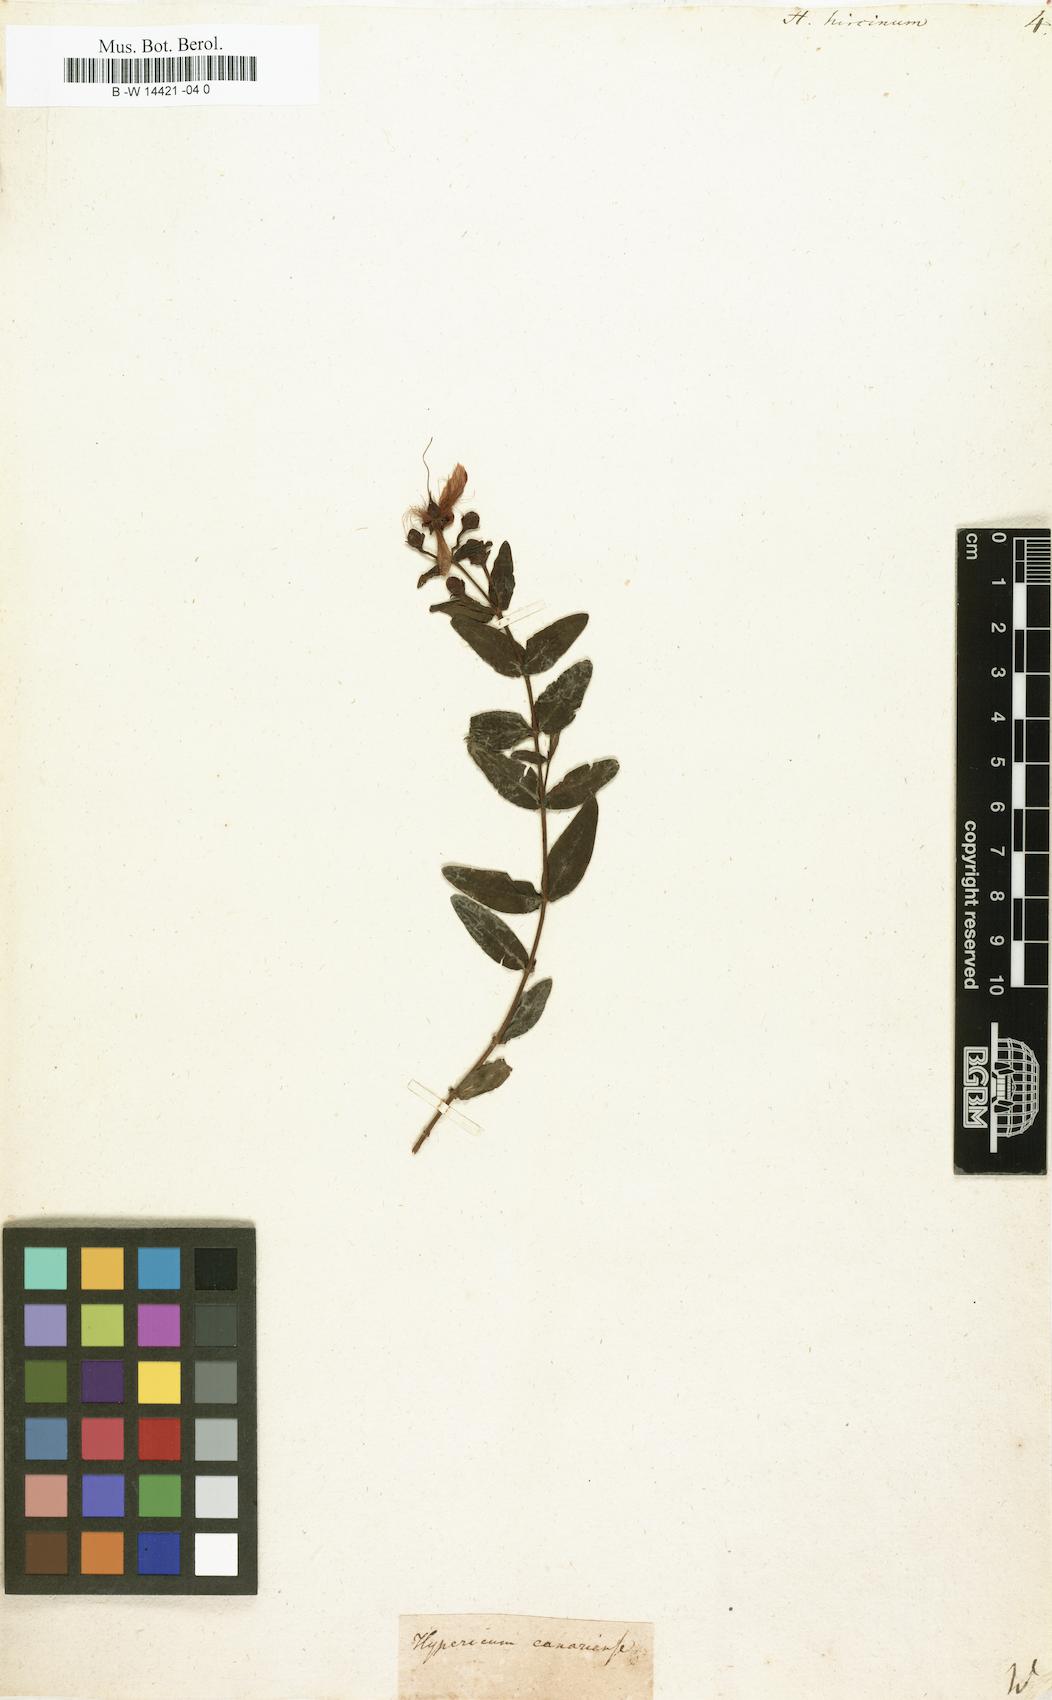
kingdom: Plantae
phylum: Tracheophyta
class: Magnoliopsida
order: Malpighiales
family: Hypericaceae
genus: Hypericum
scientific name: Hypericum hircinum
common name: Stinking tutsan
